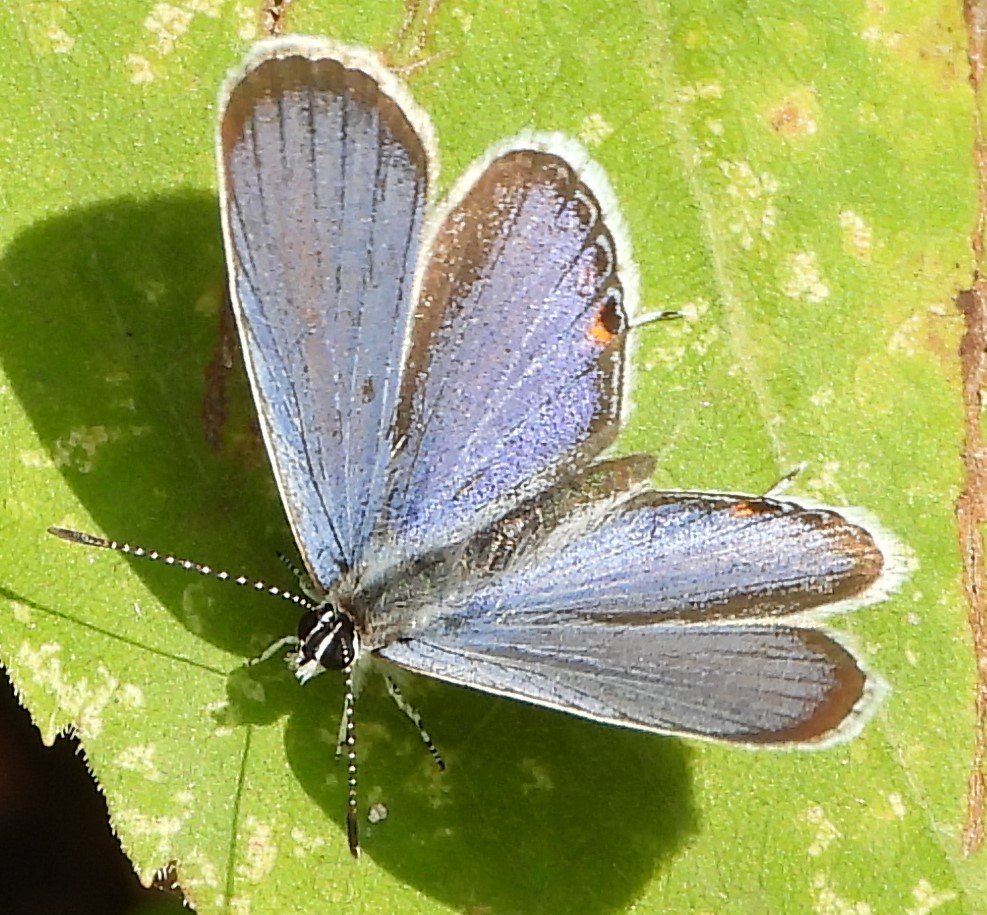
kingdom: Animalia
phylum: Arthropoda
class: Insecta
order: Lepidoptera
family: Lycaenidae
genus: Elkalyce
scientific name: Elkalyce comyntas
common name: Eastern Tailed-Blue
